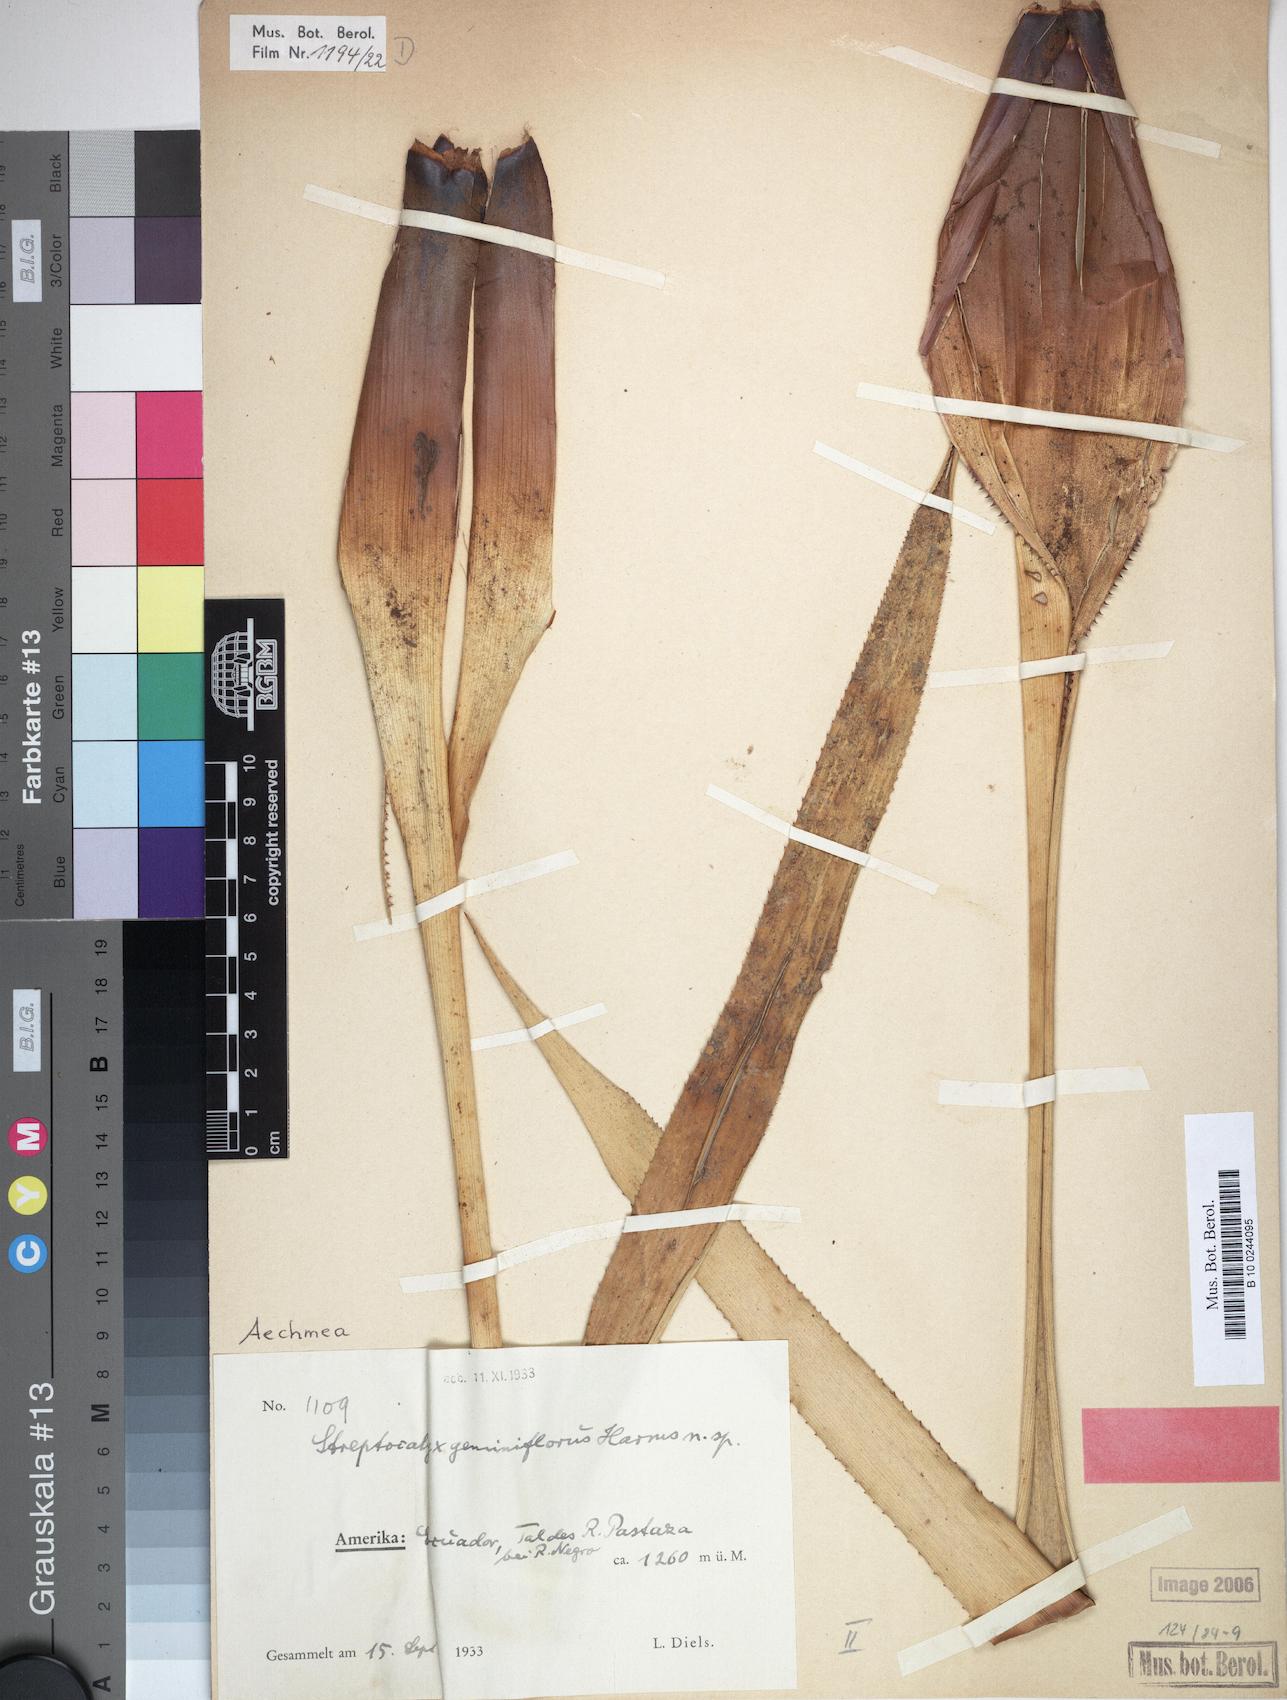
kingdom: Plantae
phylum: Tracheophyta
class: Liliopsida
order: Poales
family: Bromeliaceae
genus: Aechmea
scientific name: Aechmea geminiflora
